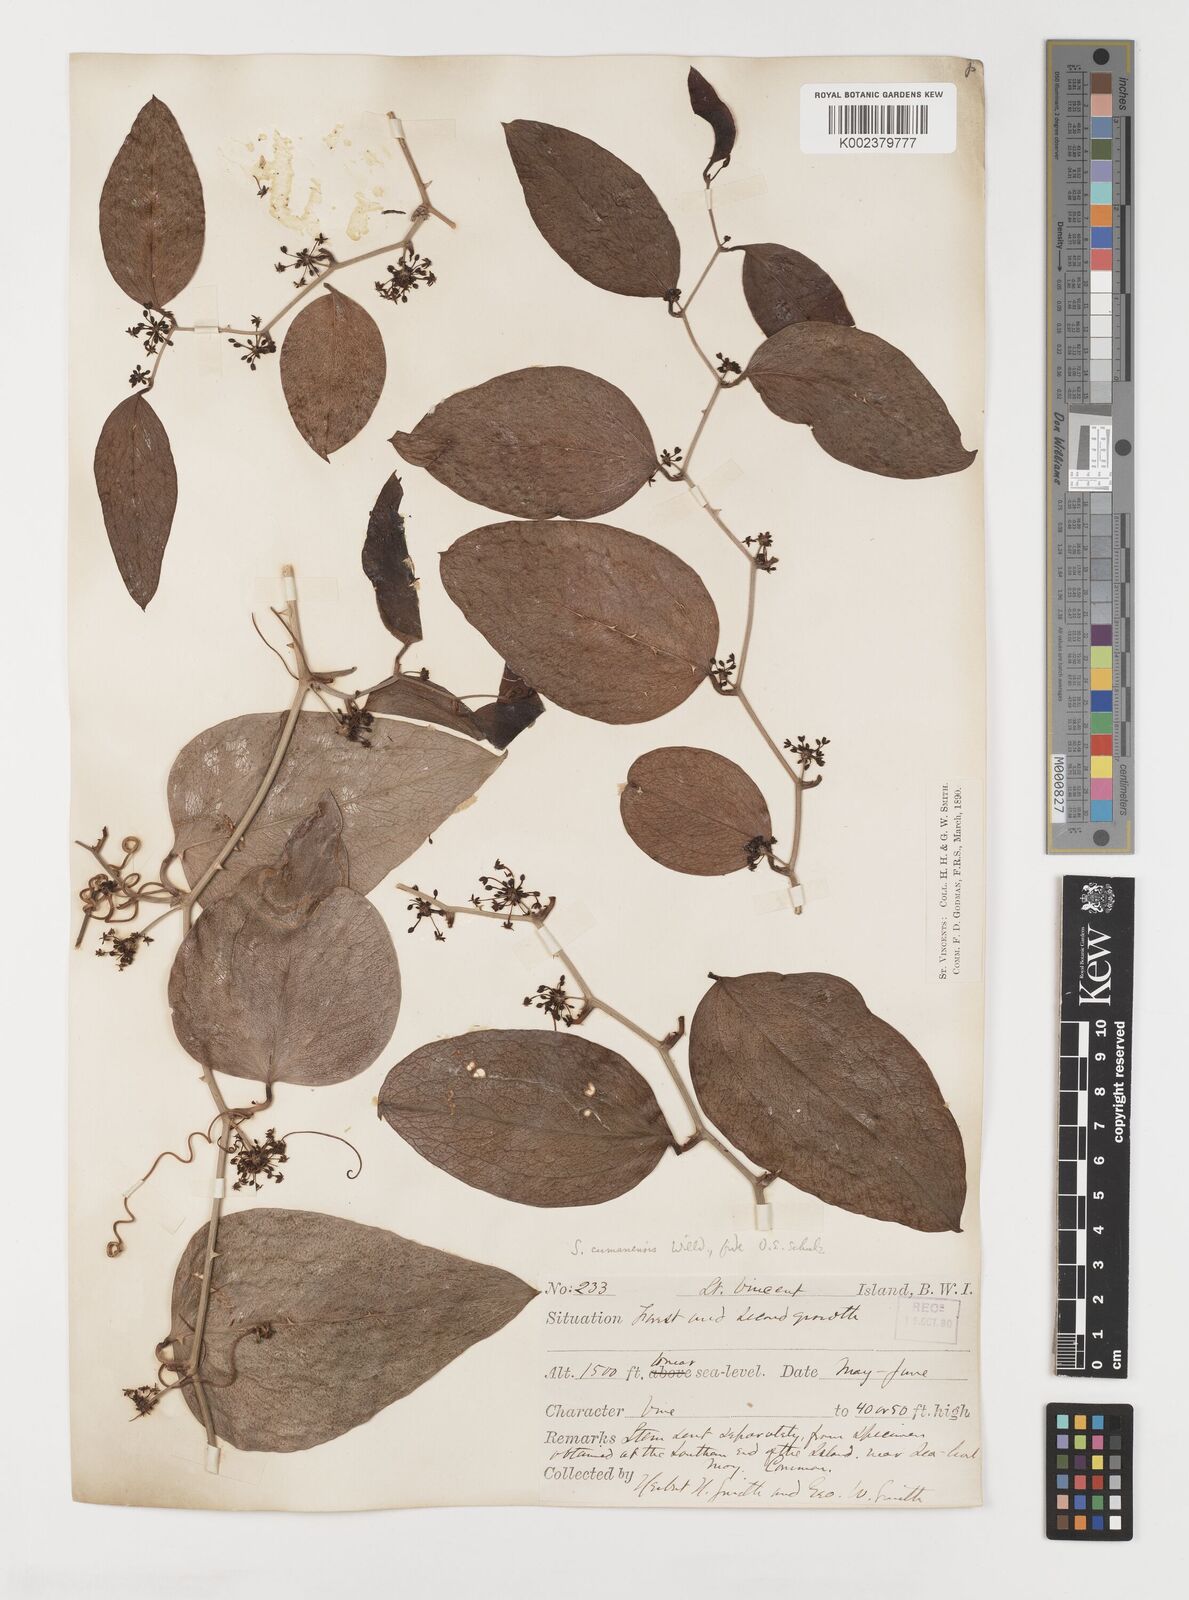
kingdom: Plantae
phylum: Tracheophyta
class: Liliopsida
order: Liliales
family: Smilacaceae
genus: Smilax
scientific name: Smilax oblongata
